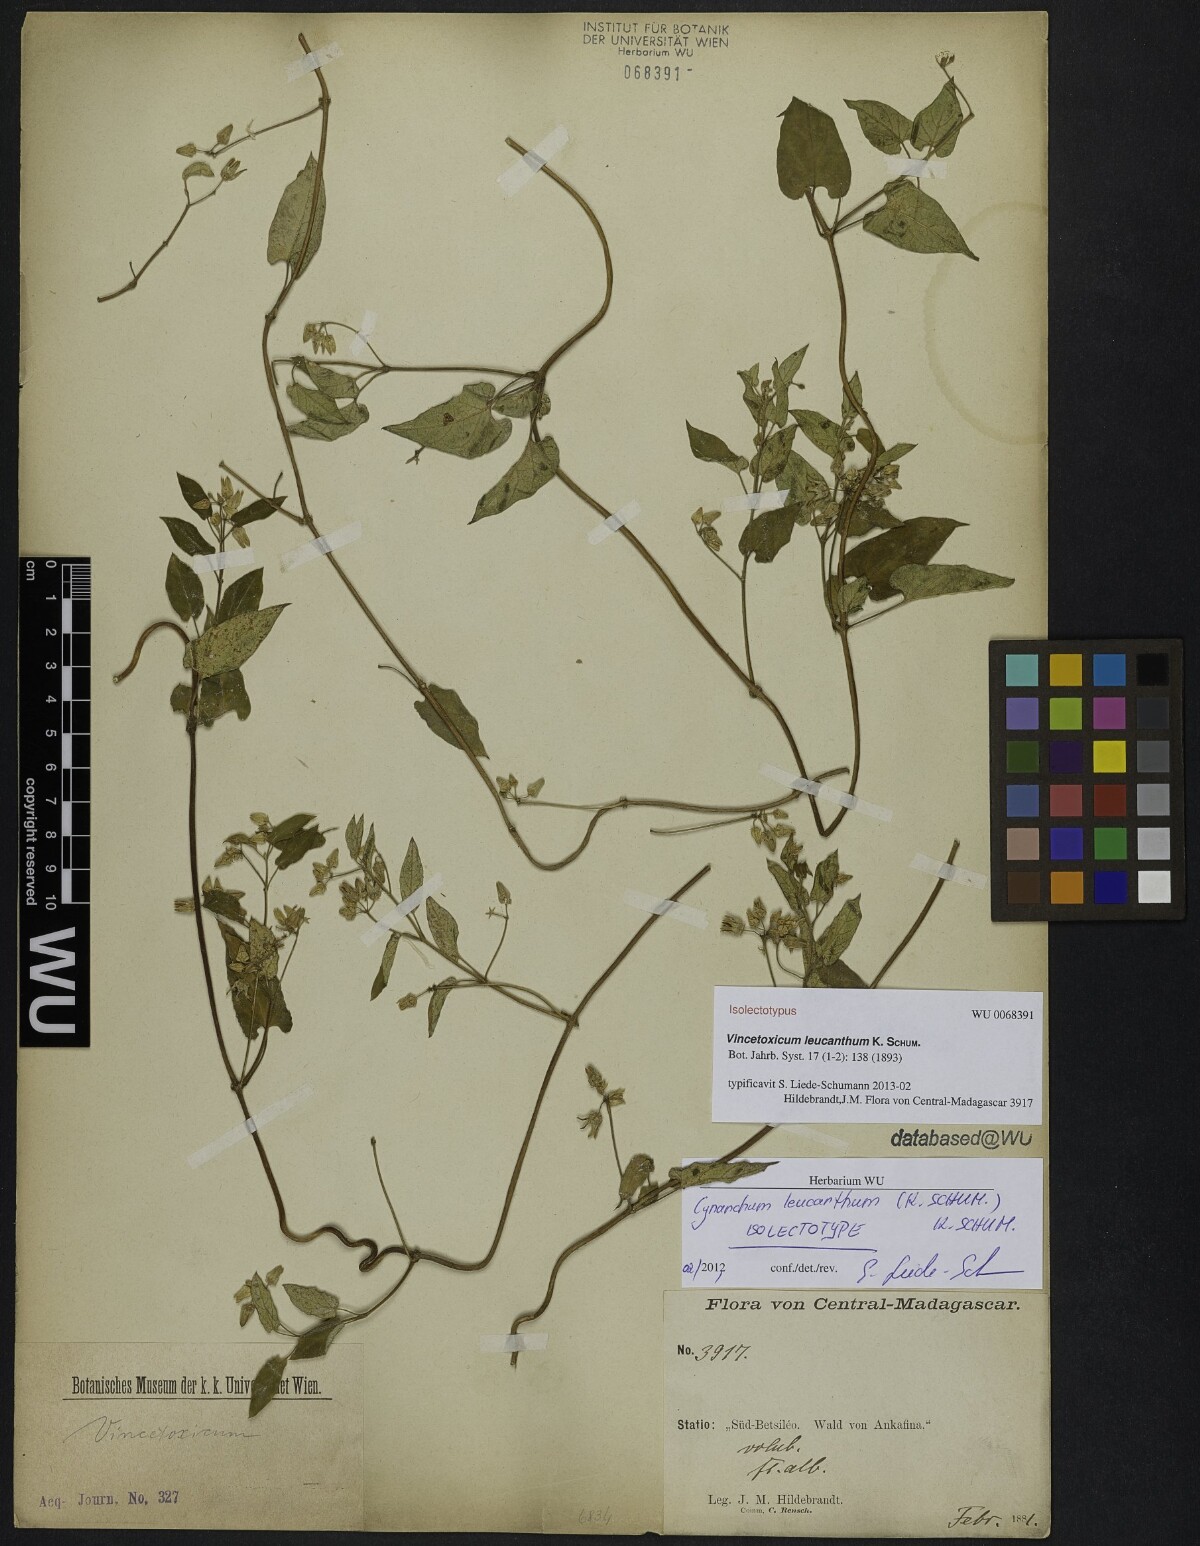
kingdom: Plantae
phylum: Tracheophyta
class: Magnoliopsida
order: Gentianales
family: Apocynaceae
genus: Cynanchum
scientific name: Cynanchum leucanthum
